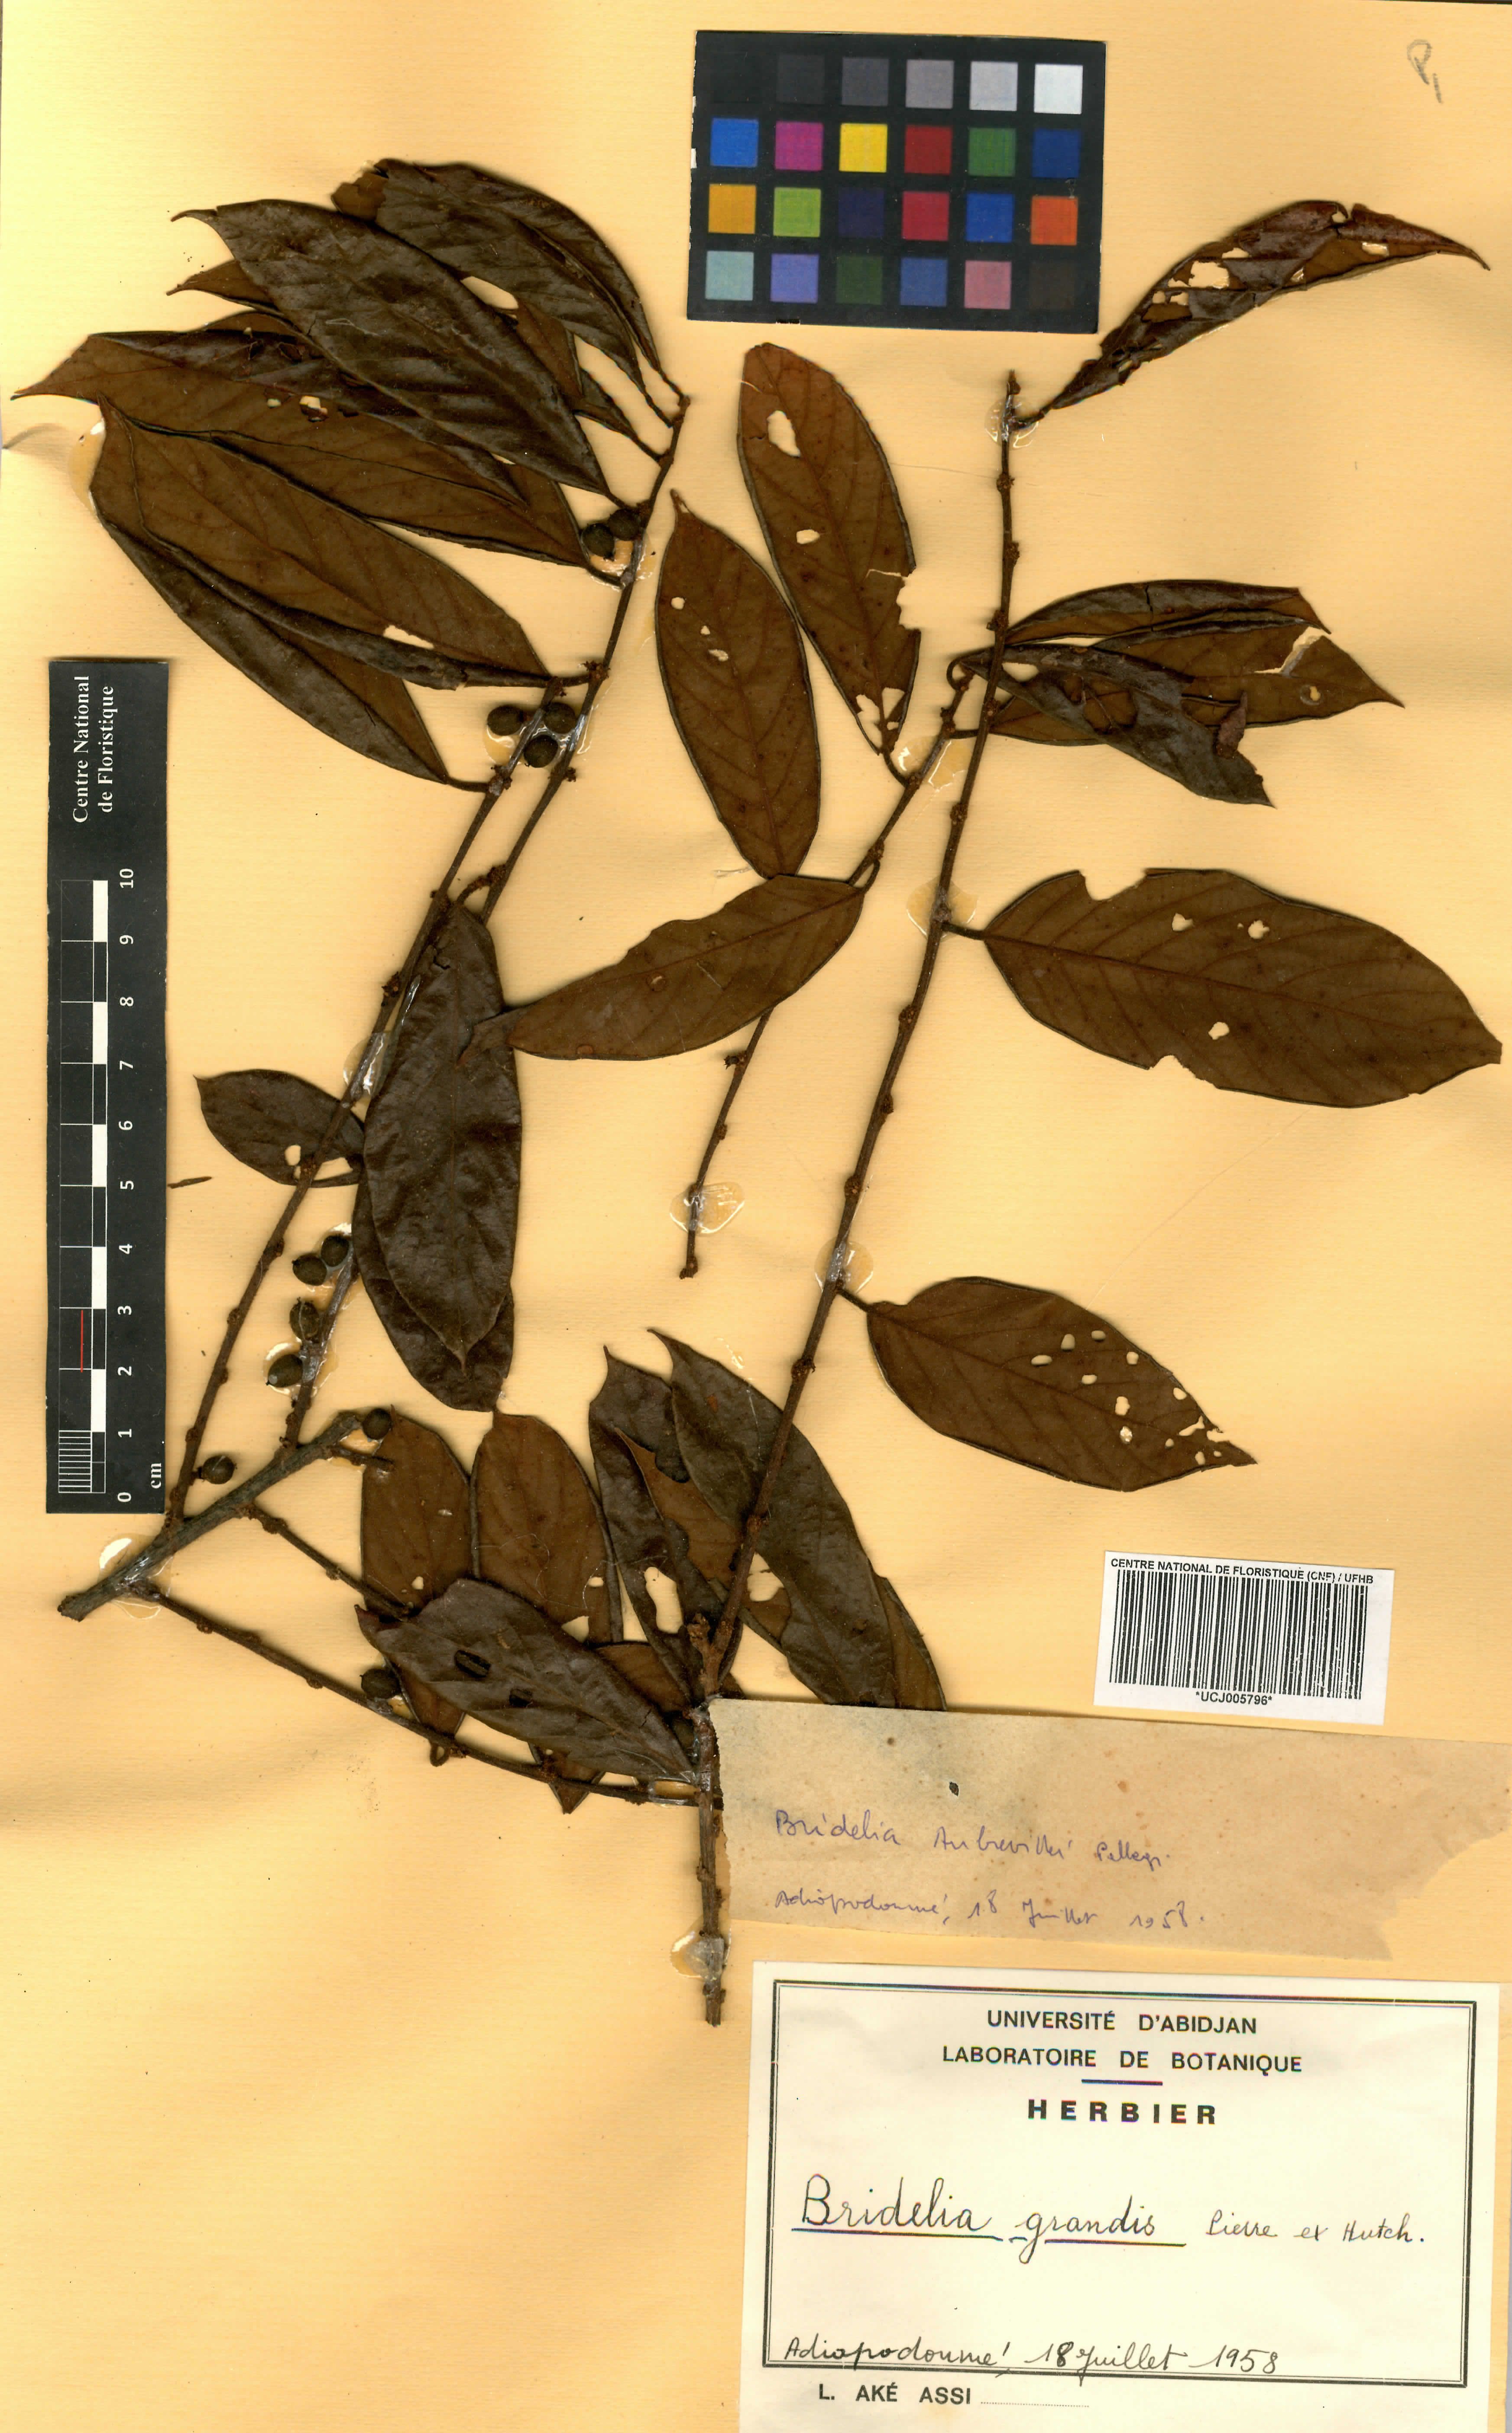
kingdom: Plantae
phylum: Tracheophyta
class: Magnoliopsida
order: Malpighiales
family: Phyllanthaceae
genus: Bridelia
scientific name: Bridelia grandis
